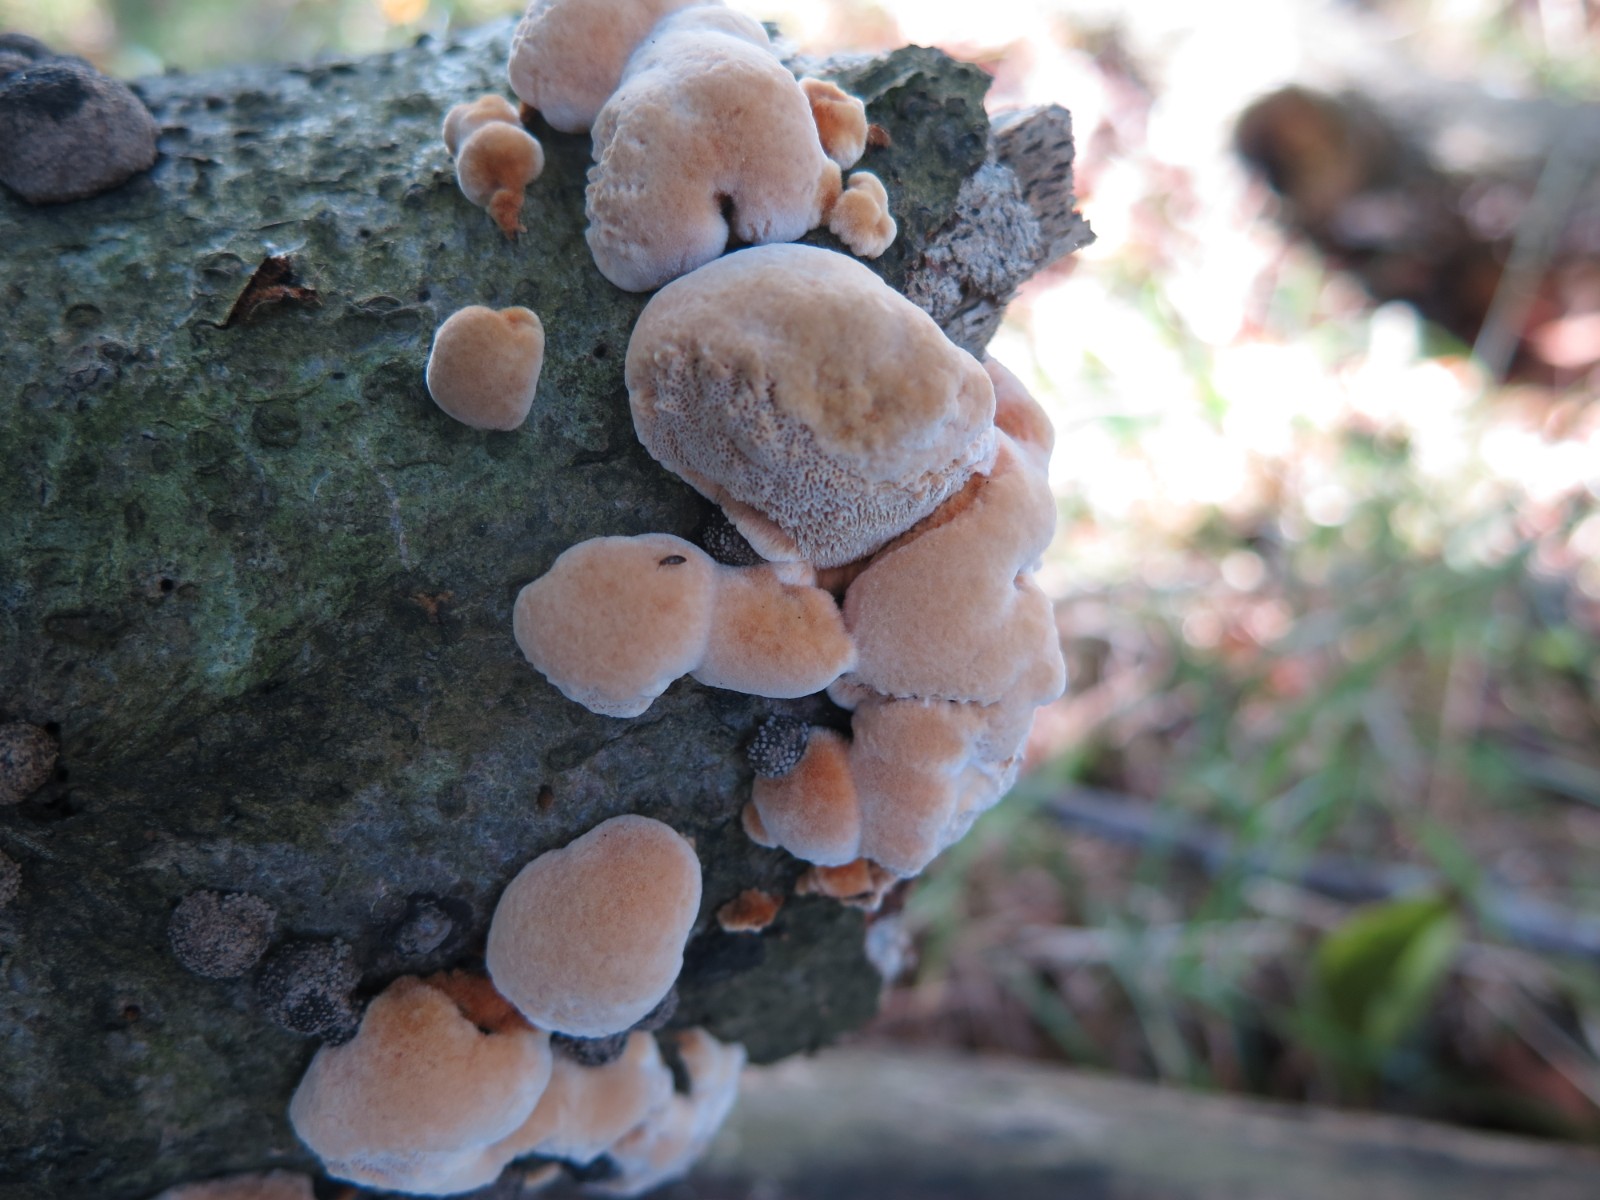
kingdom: Fungi
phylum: Basidiomycota
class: Agaricomycetes
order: Hymenochaetales
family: Hymenochaetaceae
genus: Mensularia
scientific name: Mensularia nodulosa
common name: bøge-spejlporesvamp
